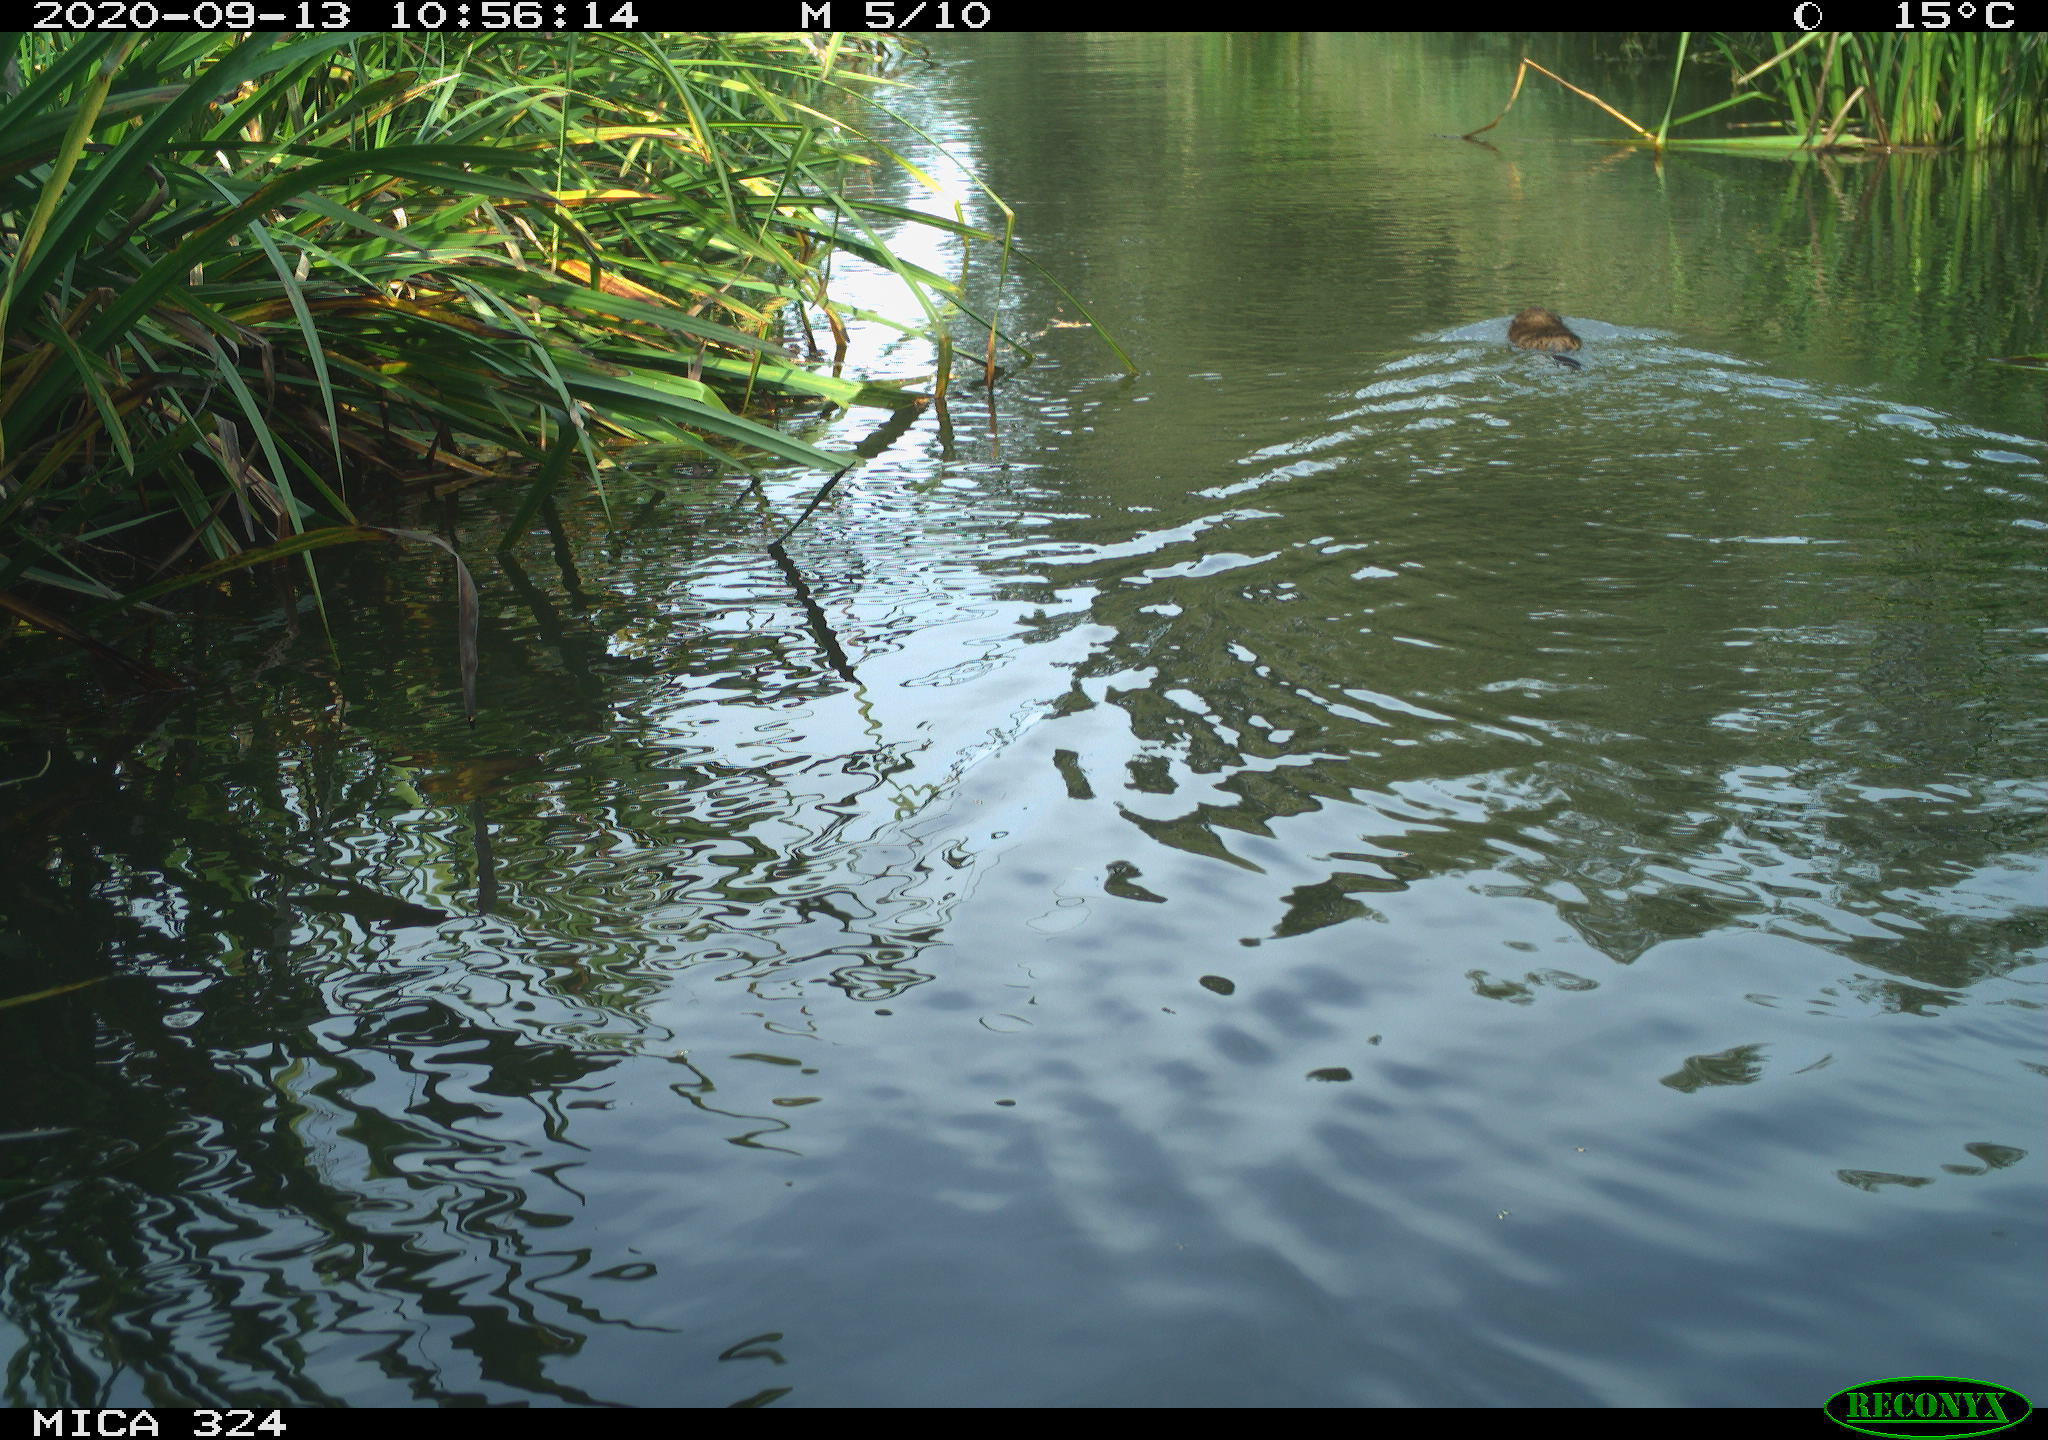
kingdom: Animalia
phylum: Chordata
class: Mammalia
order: Rodentia
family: Cricetidae
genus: Ondatra
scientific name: Ondatra zibethicus
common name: Muskrat
